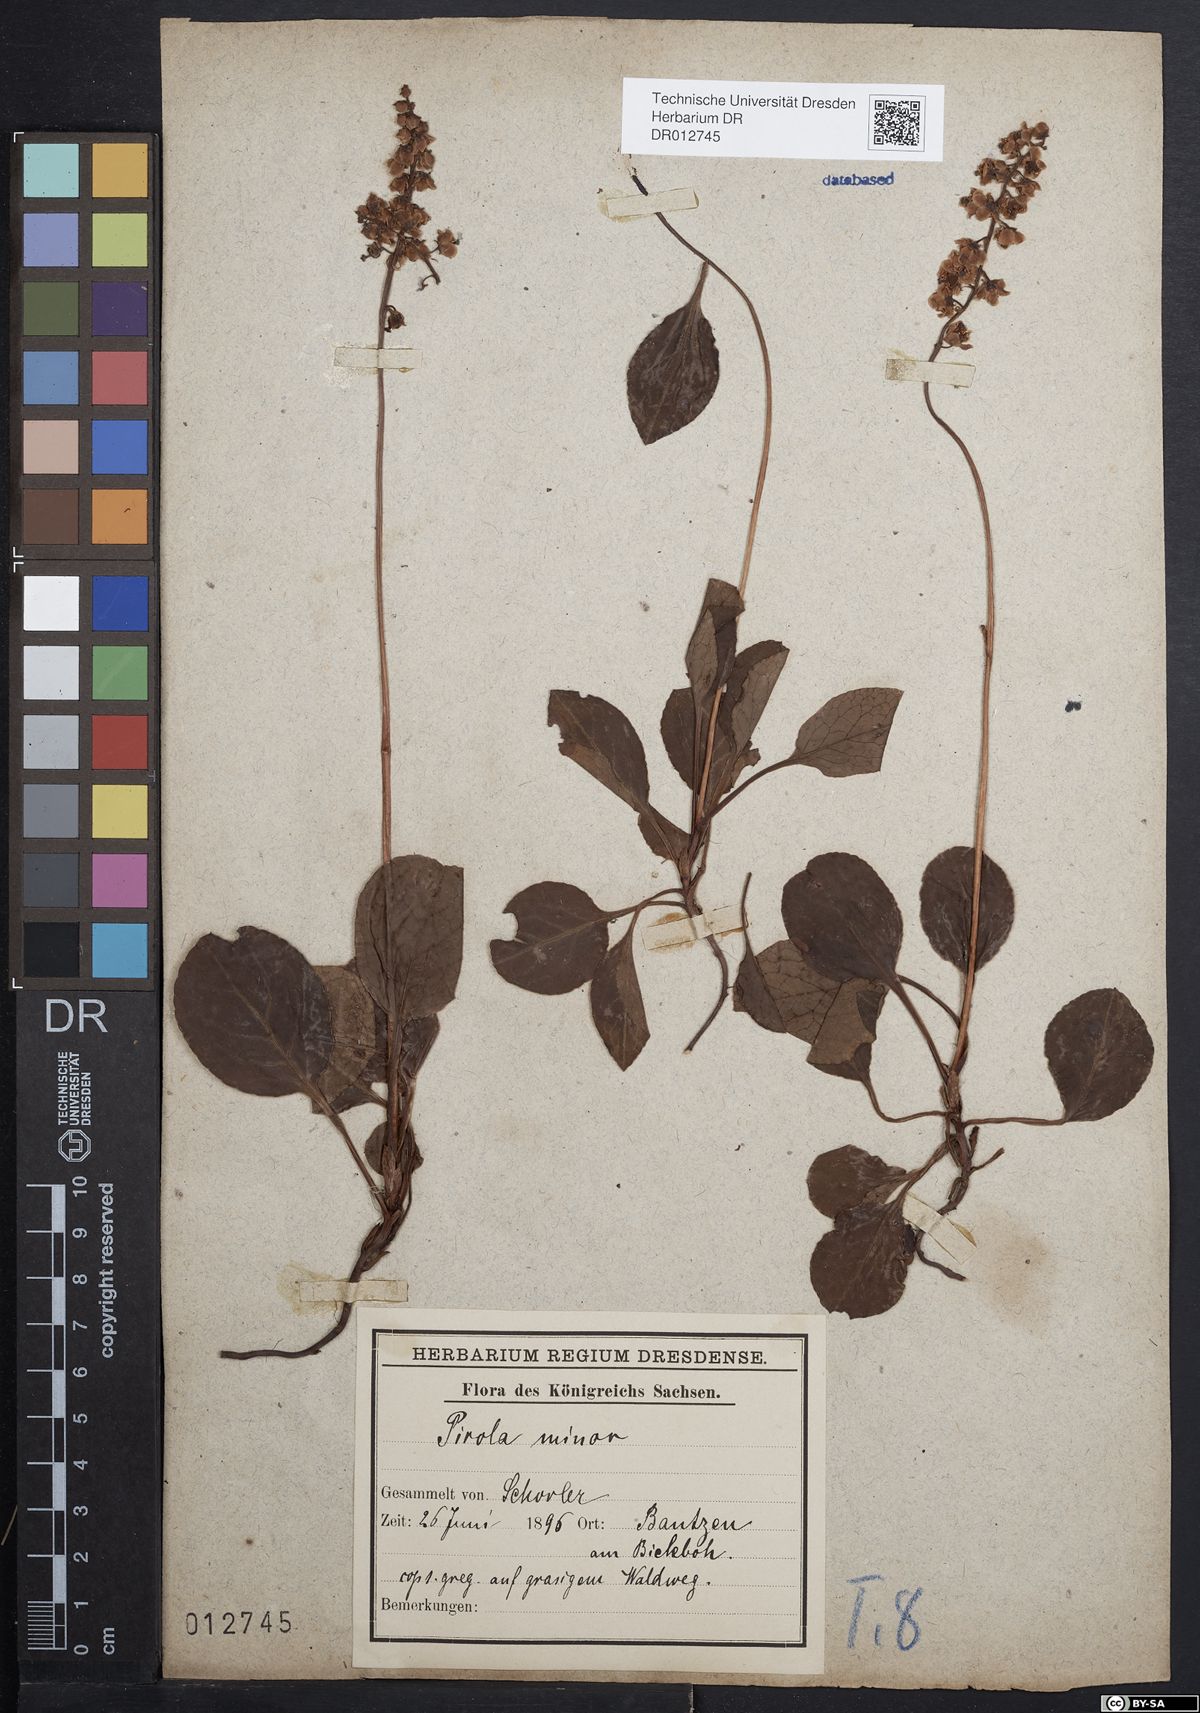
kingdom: Plantae
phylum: Tracheophyta
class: Magnoliopsida
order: Ericales
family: Ericaceae
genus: Pyrola
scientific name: Pyrola minor
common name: Common wintergreen
